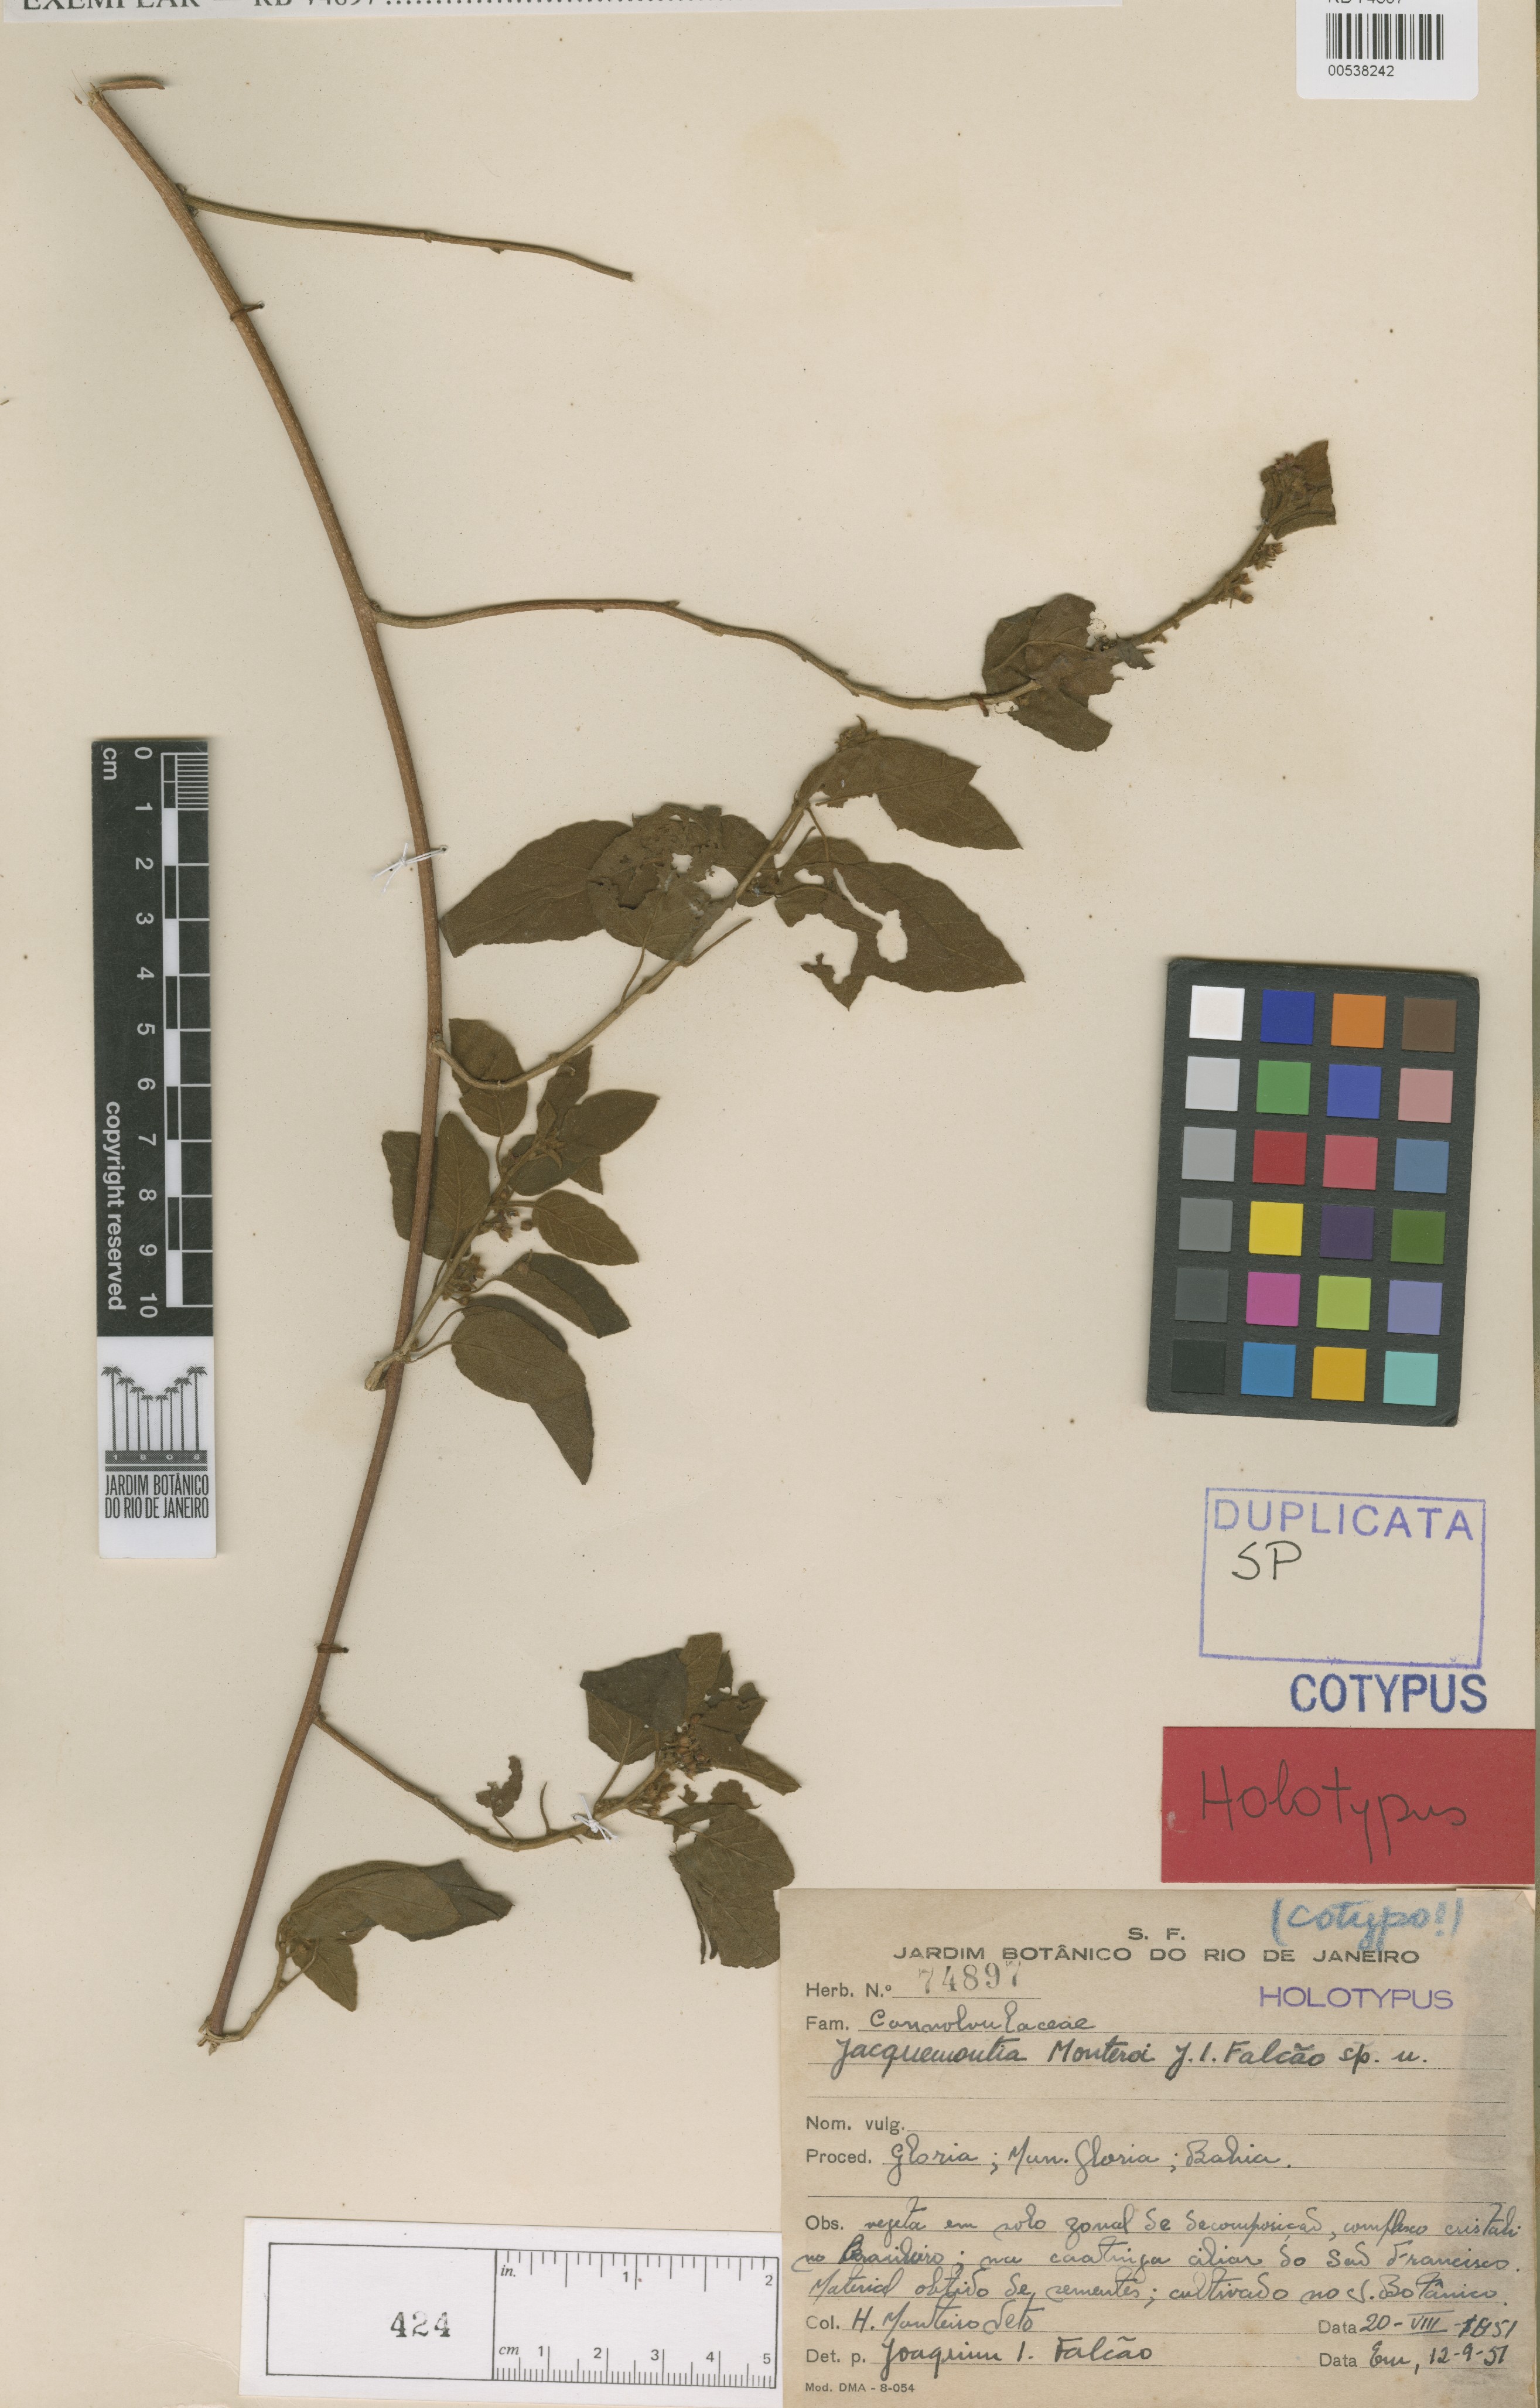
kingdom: Plantae
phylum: Tracheophyta
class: Magnoliopsida
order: Solanales
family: Convolvulaceae
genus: Jacquemontia
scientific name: Jacquemontia nodiflora
